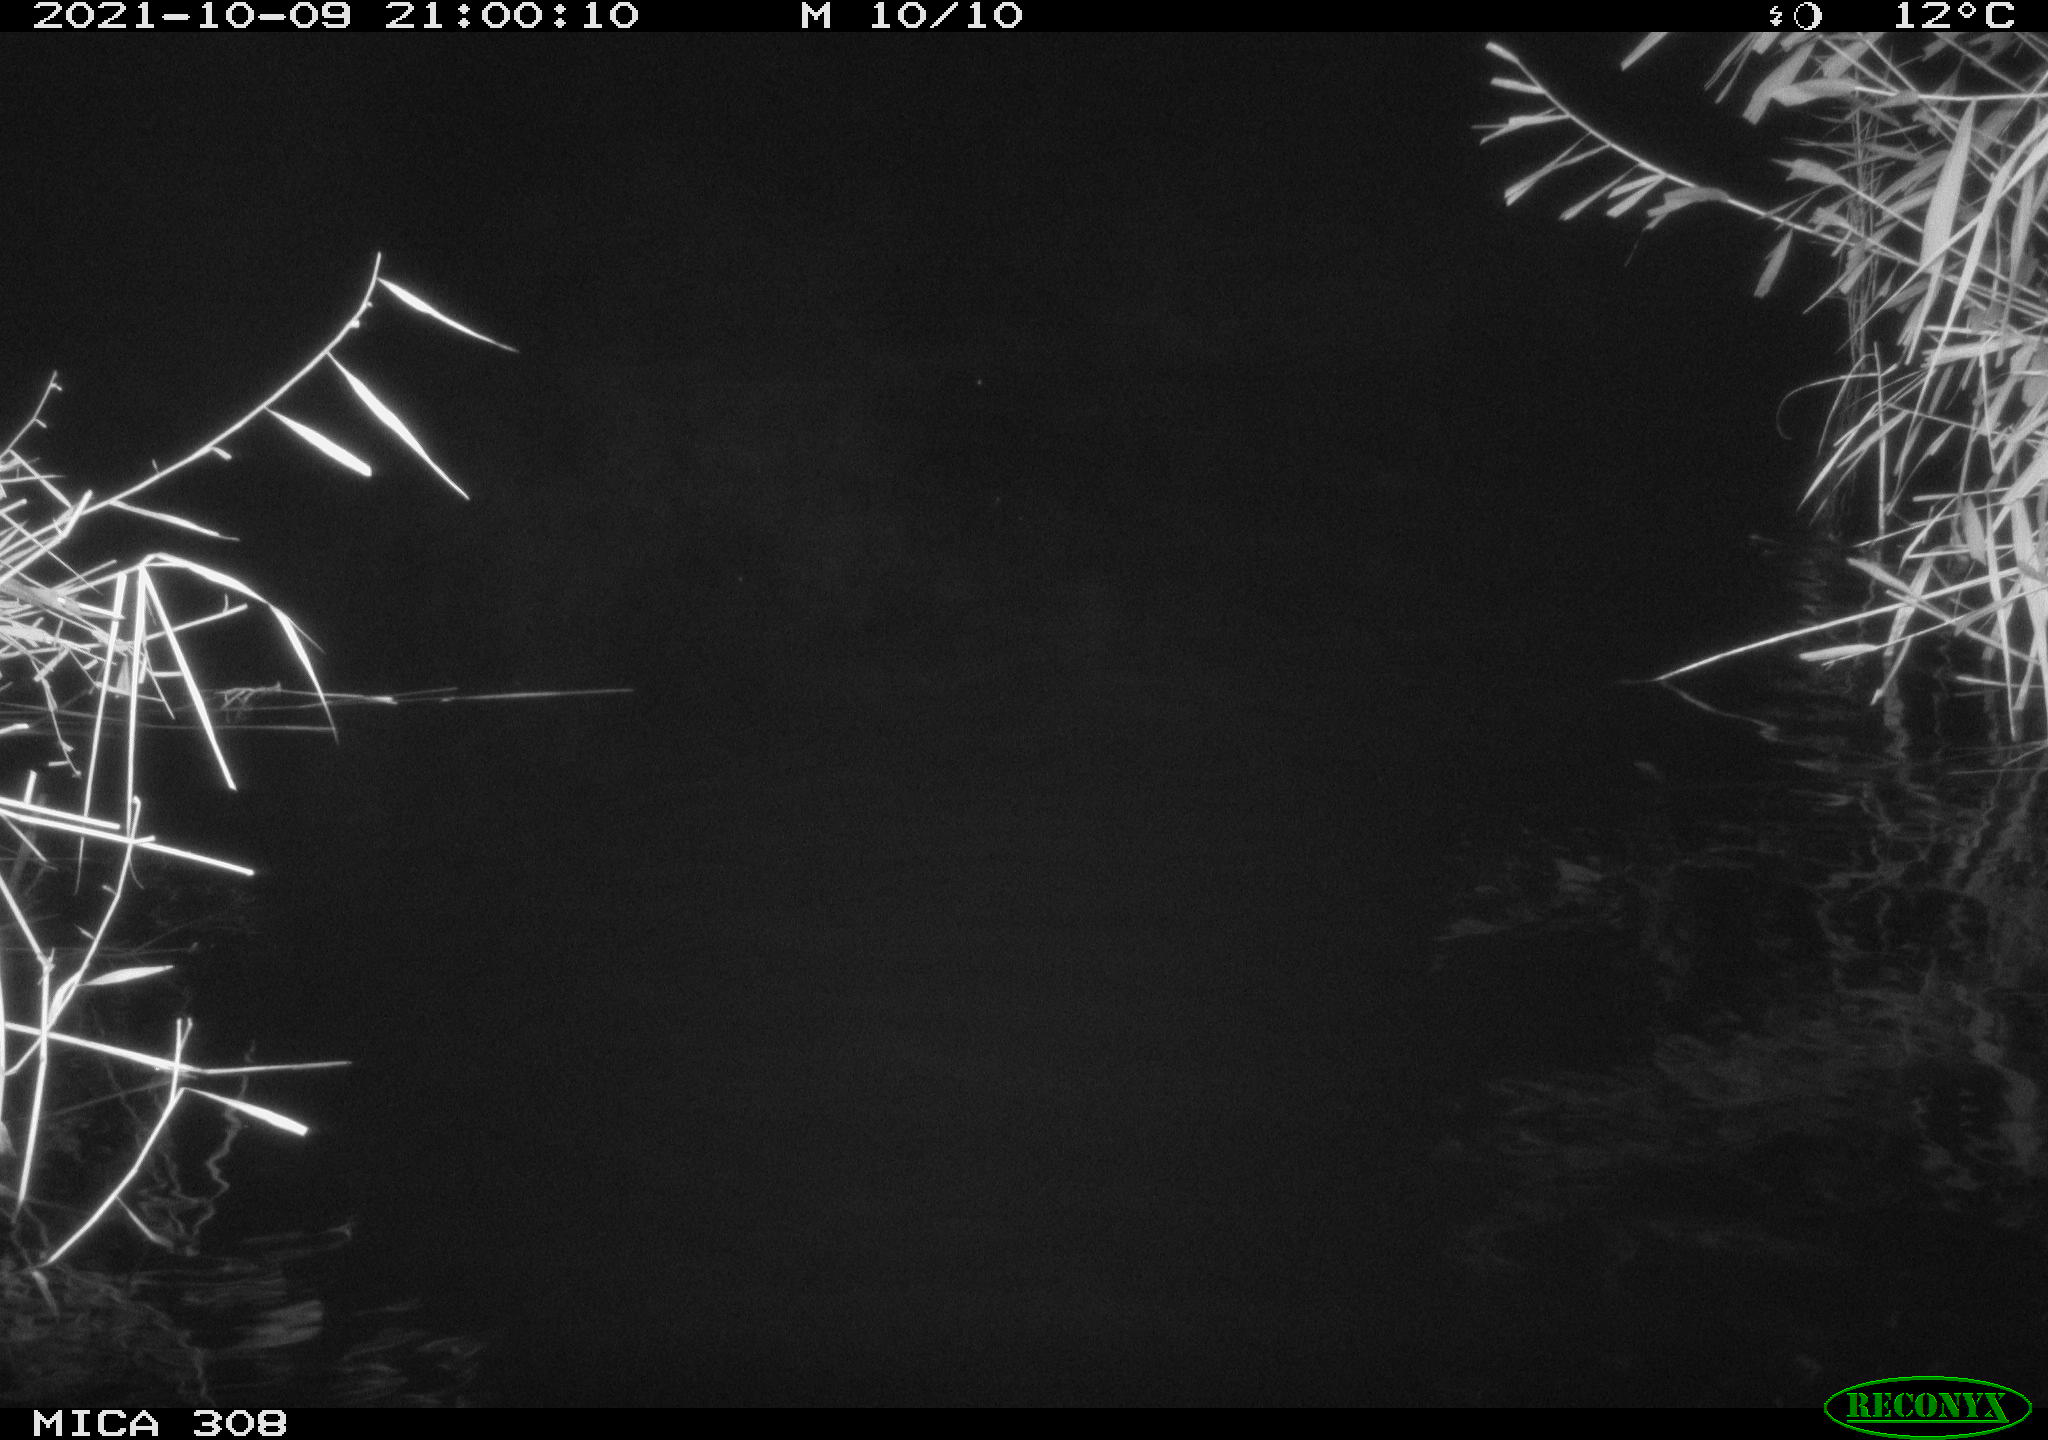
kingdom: Animalia
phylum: Chordata
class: Mammalia
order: Rodentia
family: Cricetidae
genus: Ondatra
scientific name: Ondatra zibethicus
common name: Muskrat
